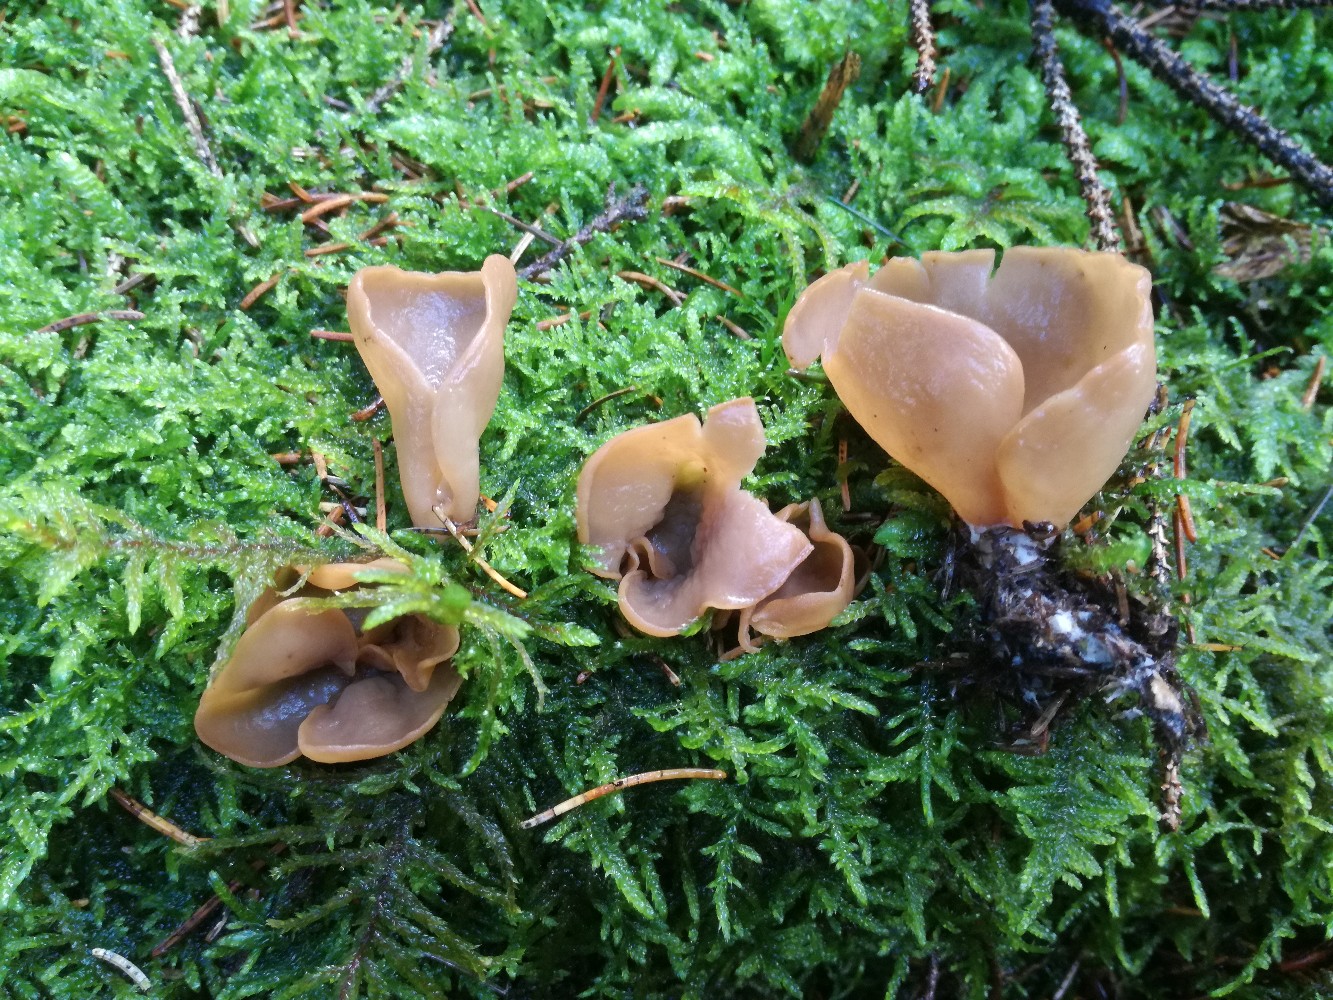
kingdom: Fungi
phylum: Ascomycota
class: Pezizomycetes
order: Pezizales
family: Otideaceae
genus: Otidea
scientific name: Otidea leporina
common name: hare-ørebæger
